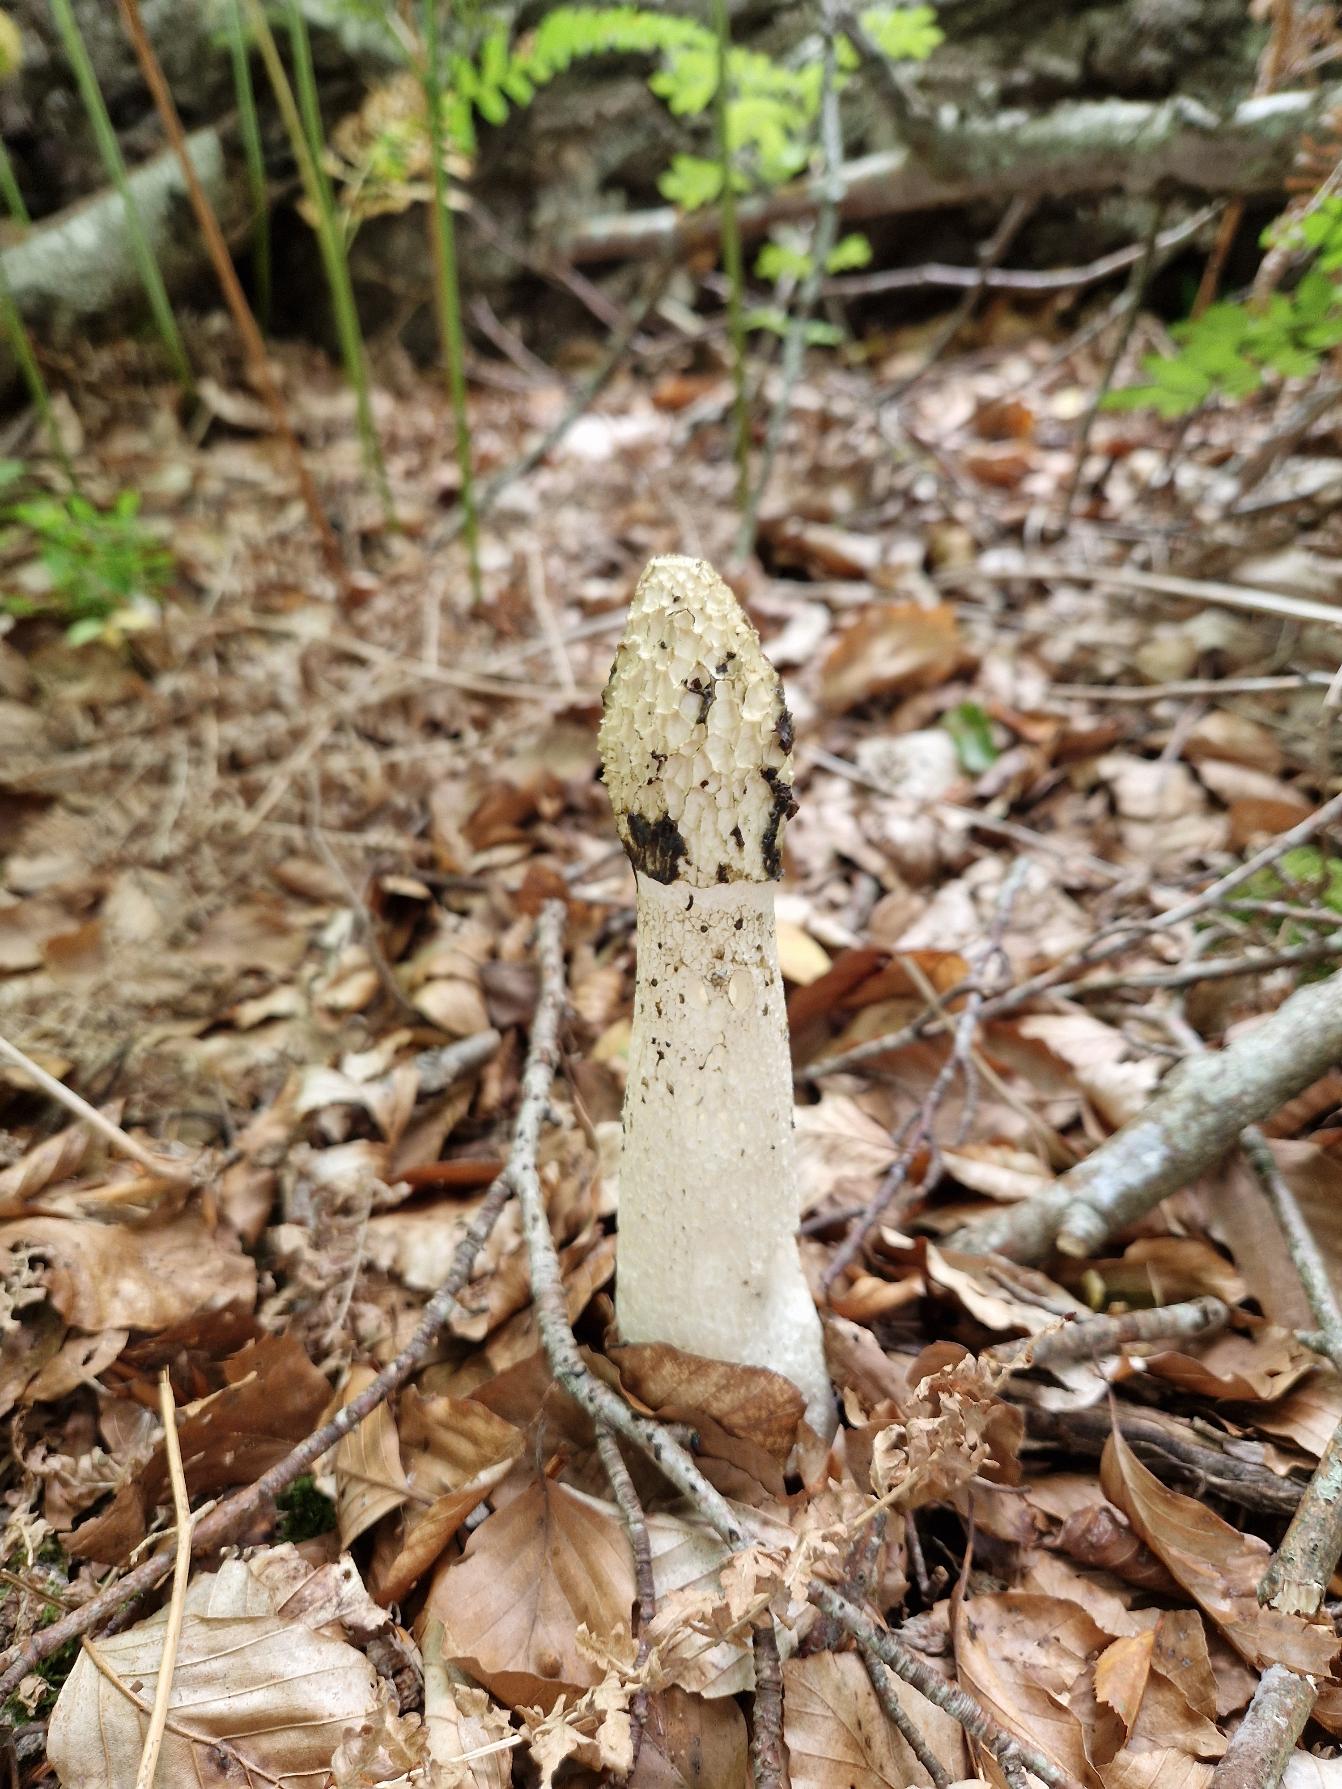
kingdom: Fungi
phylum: Basidiomycota
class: Agaricomycetes
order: Phallales
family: Phallaceae
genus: Phallus
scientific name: Phallus impudicus
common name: Almindelig stinksvamp
